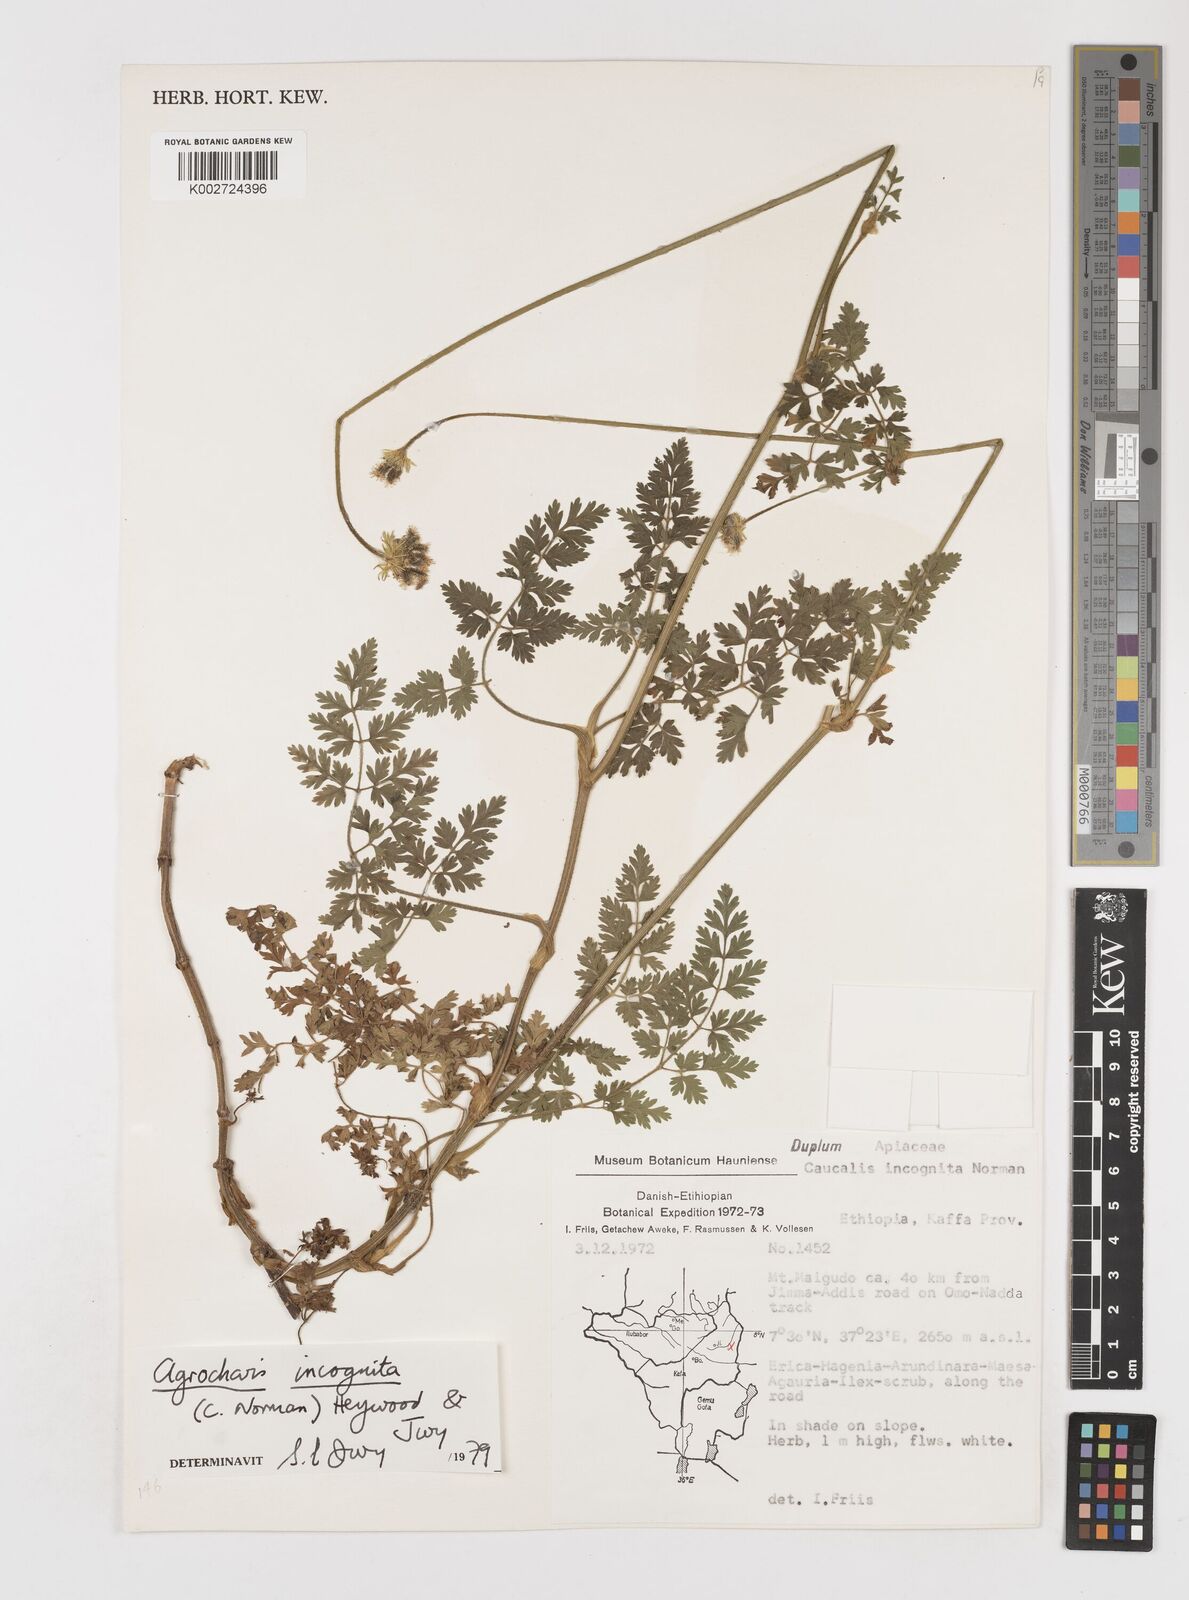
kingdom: Plantae
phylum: Tracheophyta
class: Magnoliopsida
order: Apiales
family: Apiaceae
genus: Daucus
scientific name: Daucus incognitus
